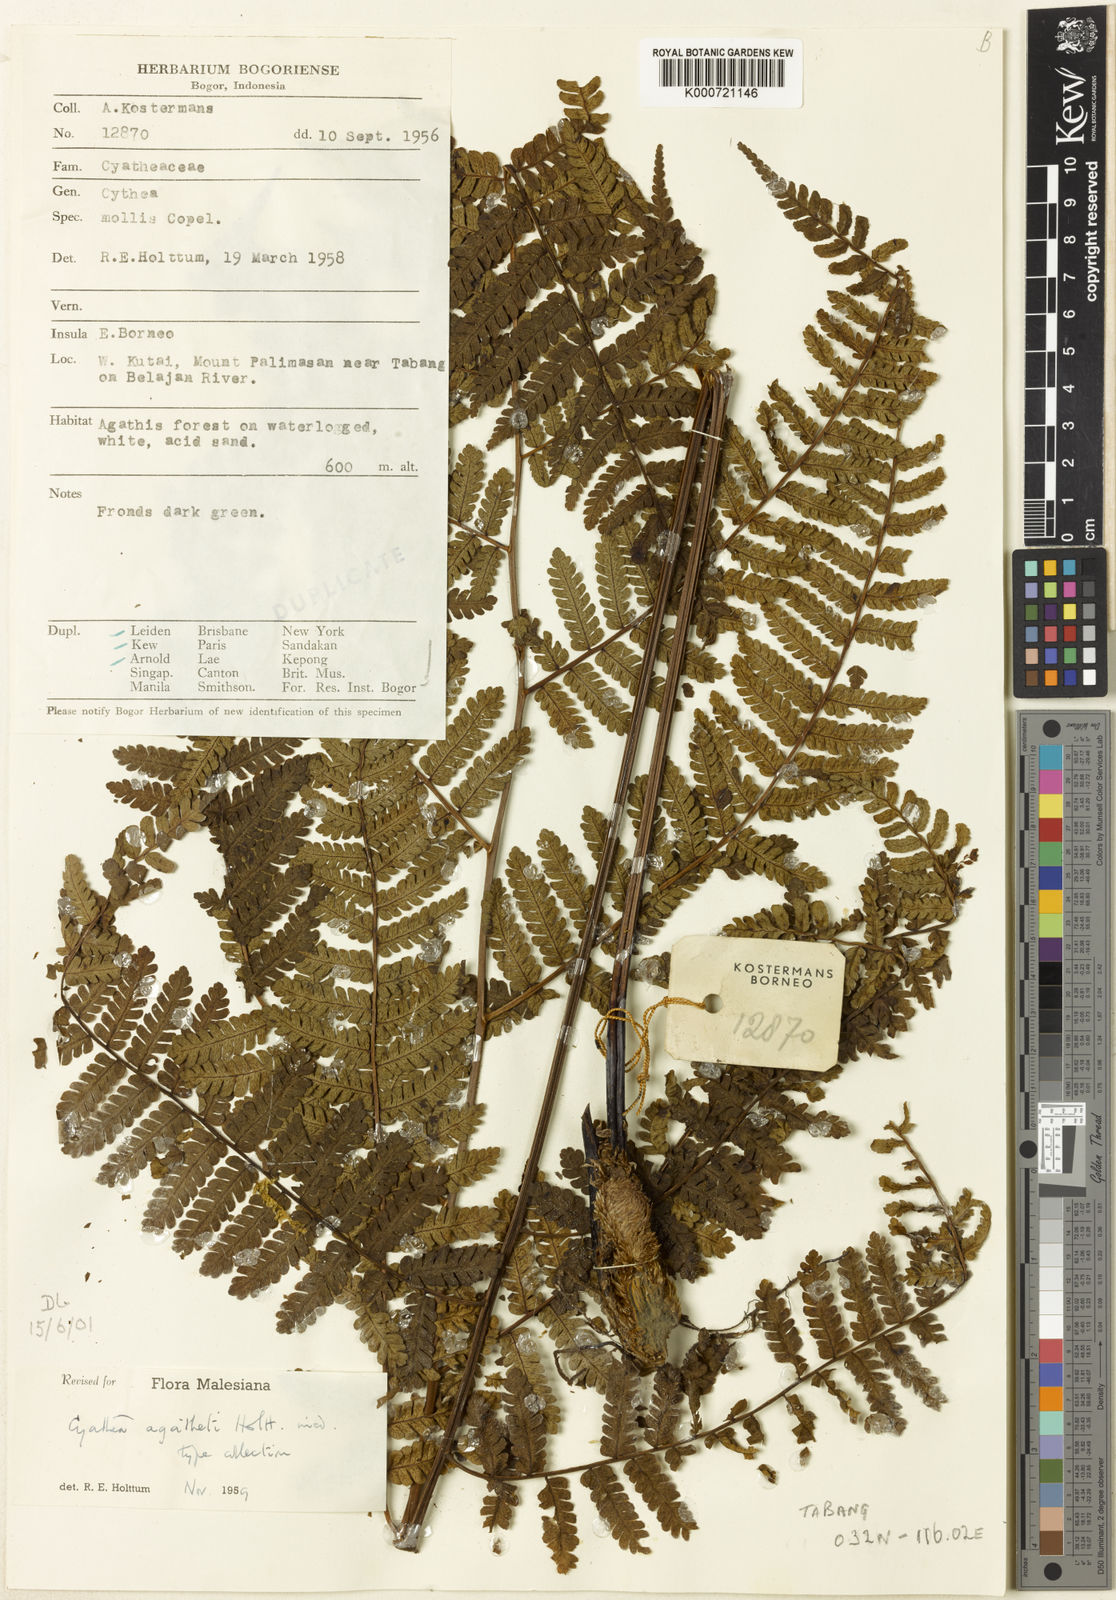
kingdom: Plantae
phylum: Tracheophyta
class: Polypodiopsida
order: Cyatheales
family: Cyatheaceae
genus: Sphaeropteris
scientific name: Sphaeropteris agatheti
